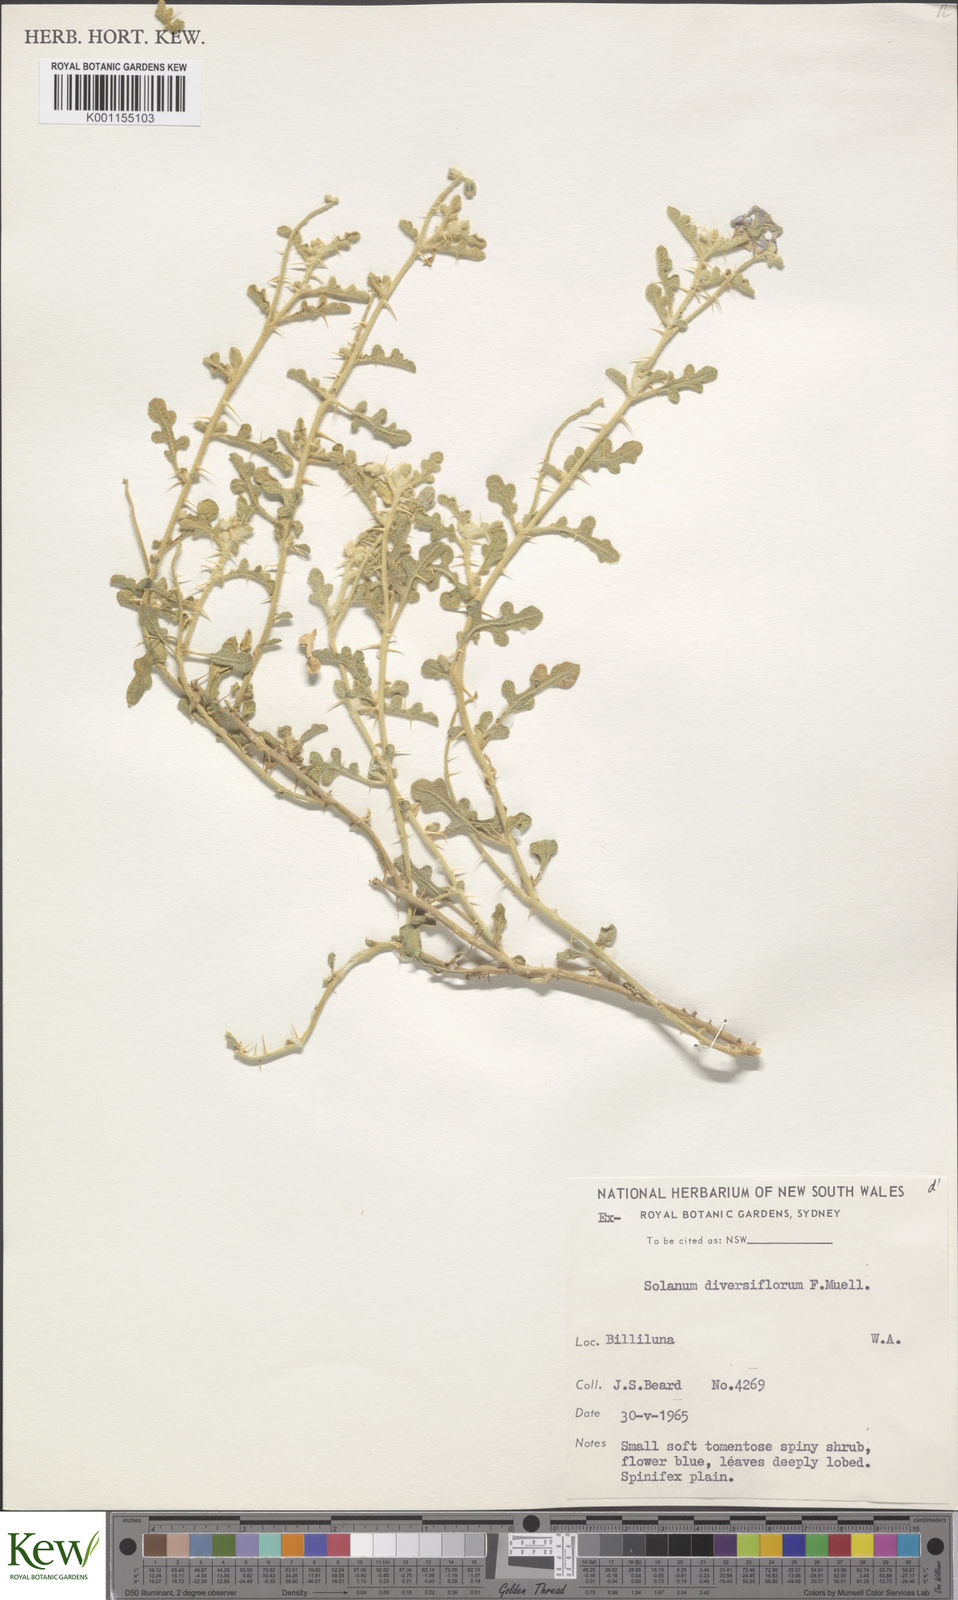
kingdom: Plantae
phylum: Tracheophyta
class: Magnoliopsida
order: Solanales
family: Solanaceae
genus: Solanum
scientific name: Solanum diversiflorum
